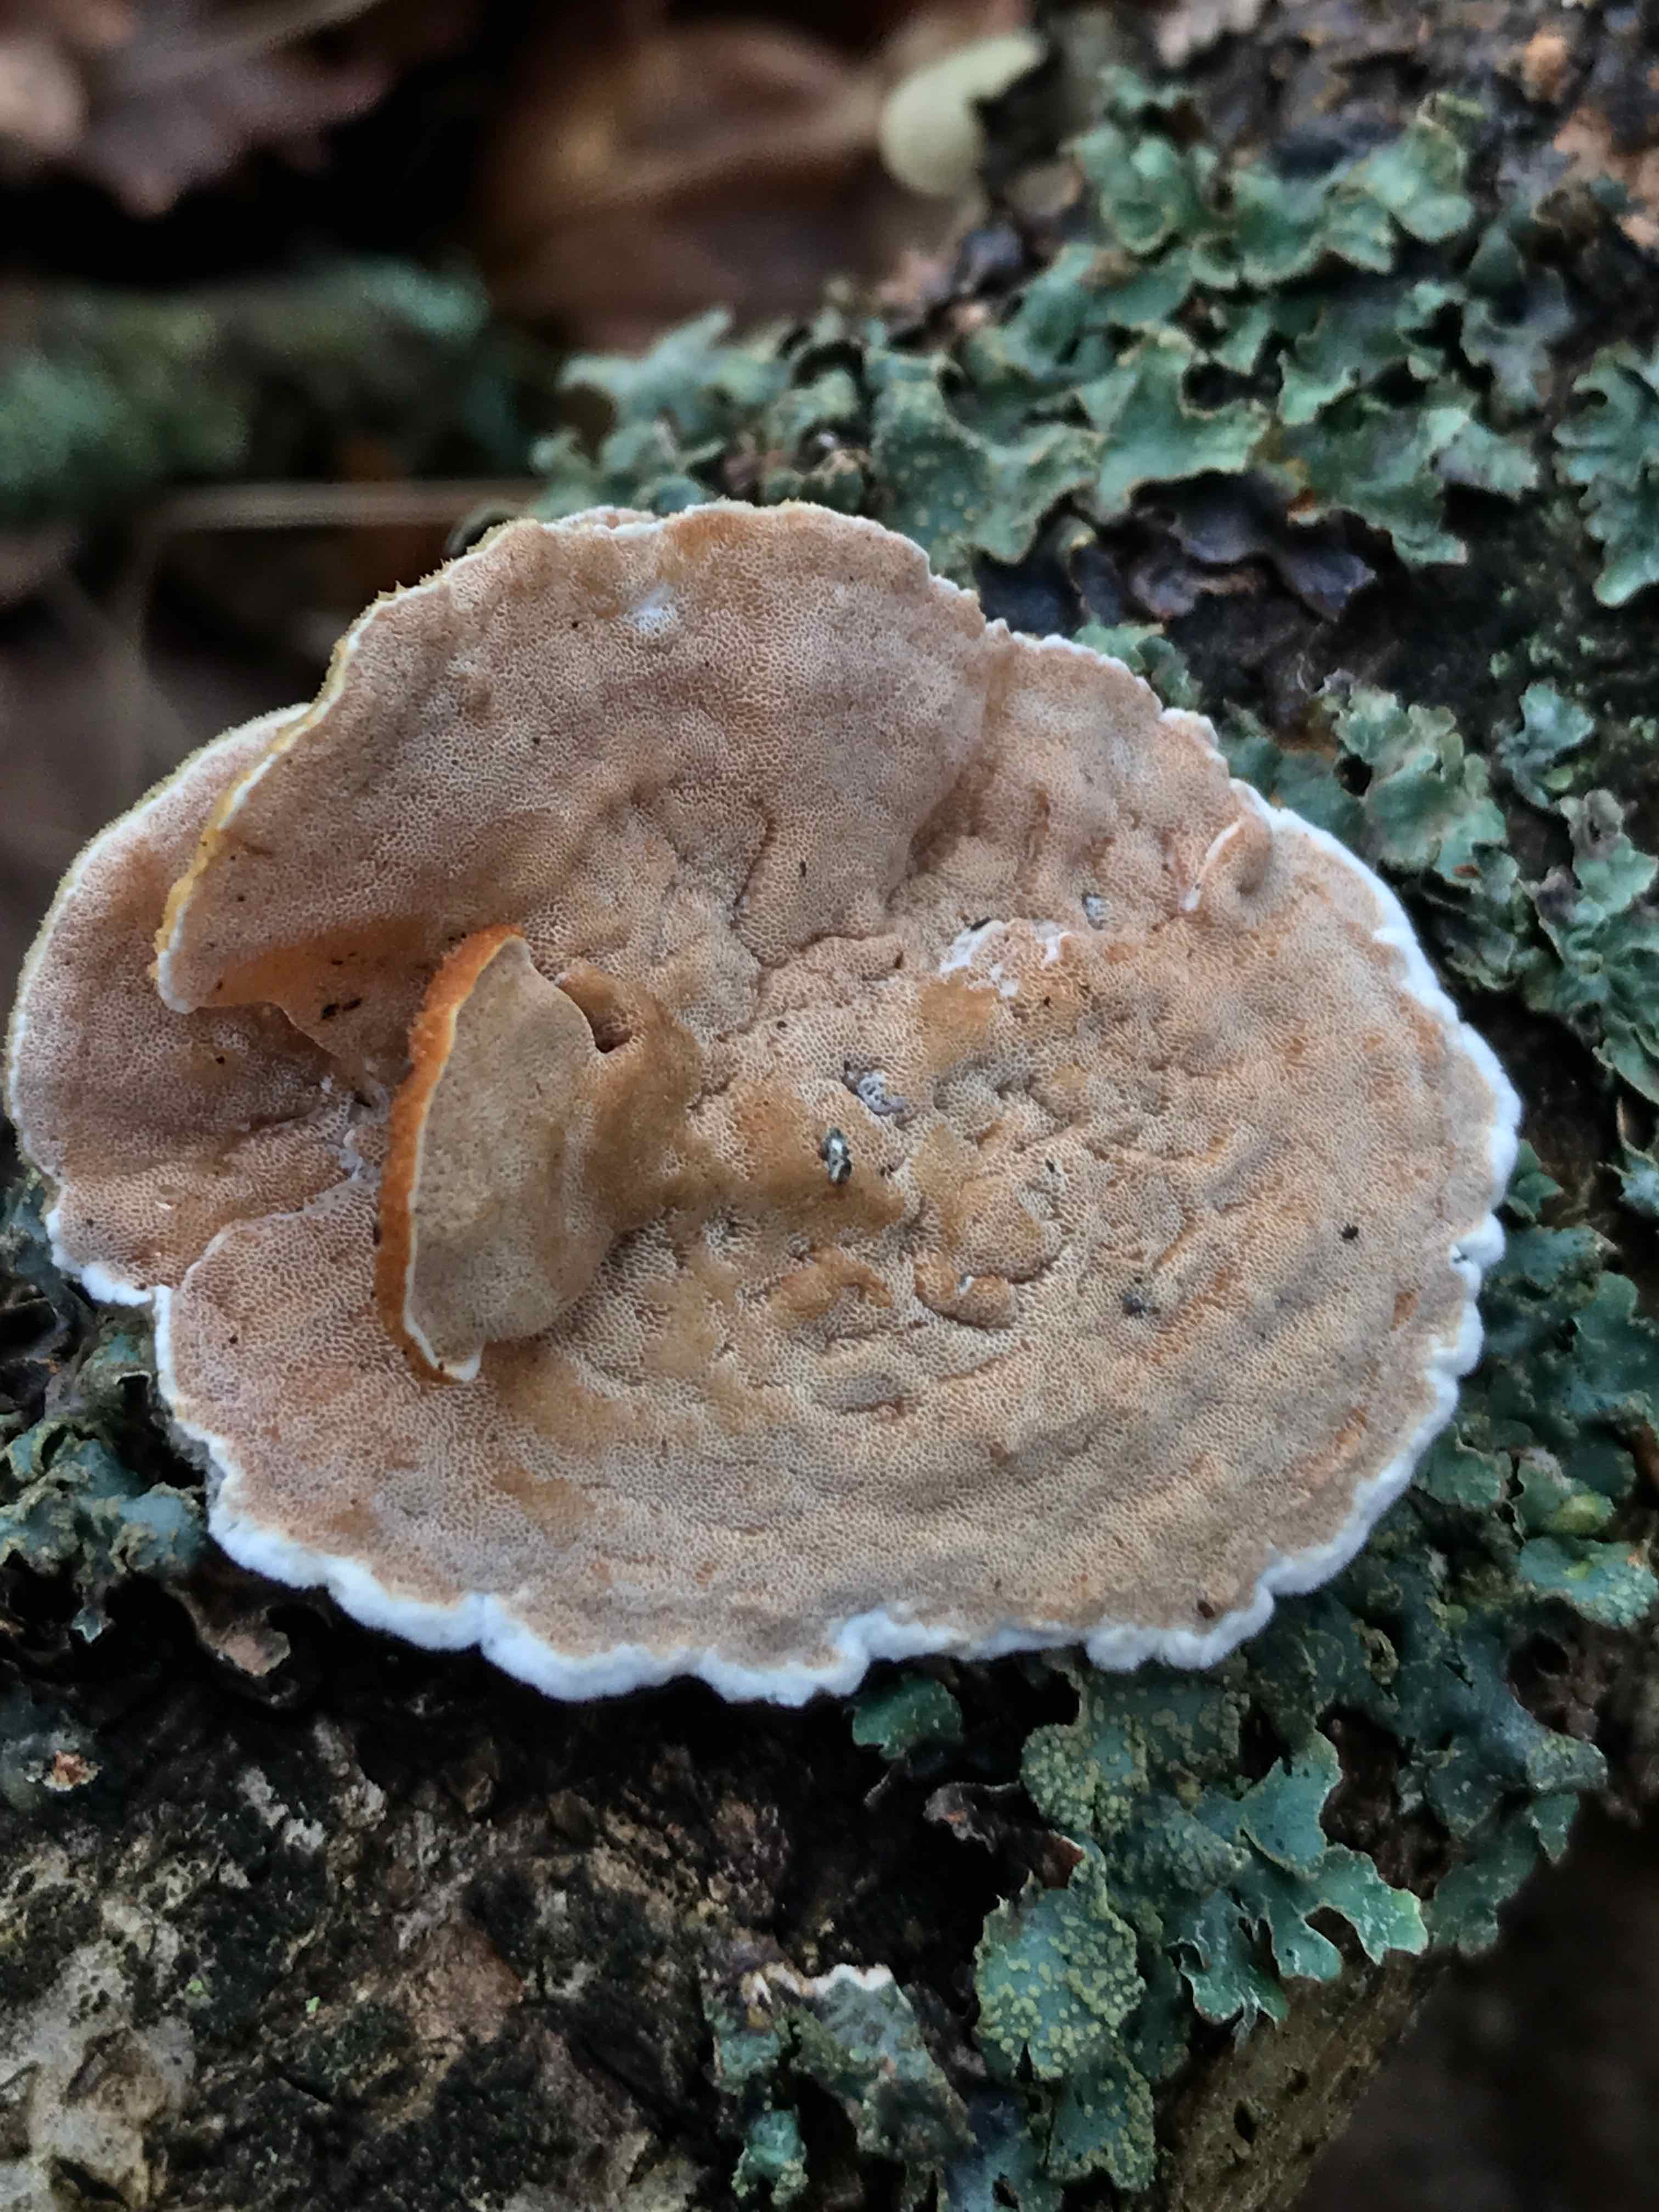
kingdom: Fungi
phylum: Basidiomycota
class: Agaricomycetes
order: Polyporales
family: Irpicaceae
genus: Vitreoporus
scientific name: Vitreoporus dichrous
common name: tofarvet foldporesvamp
